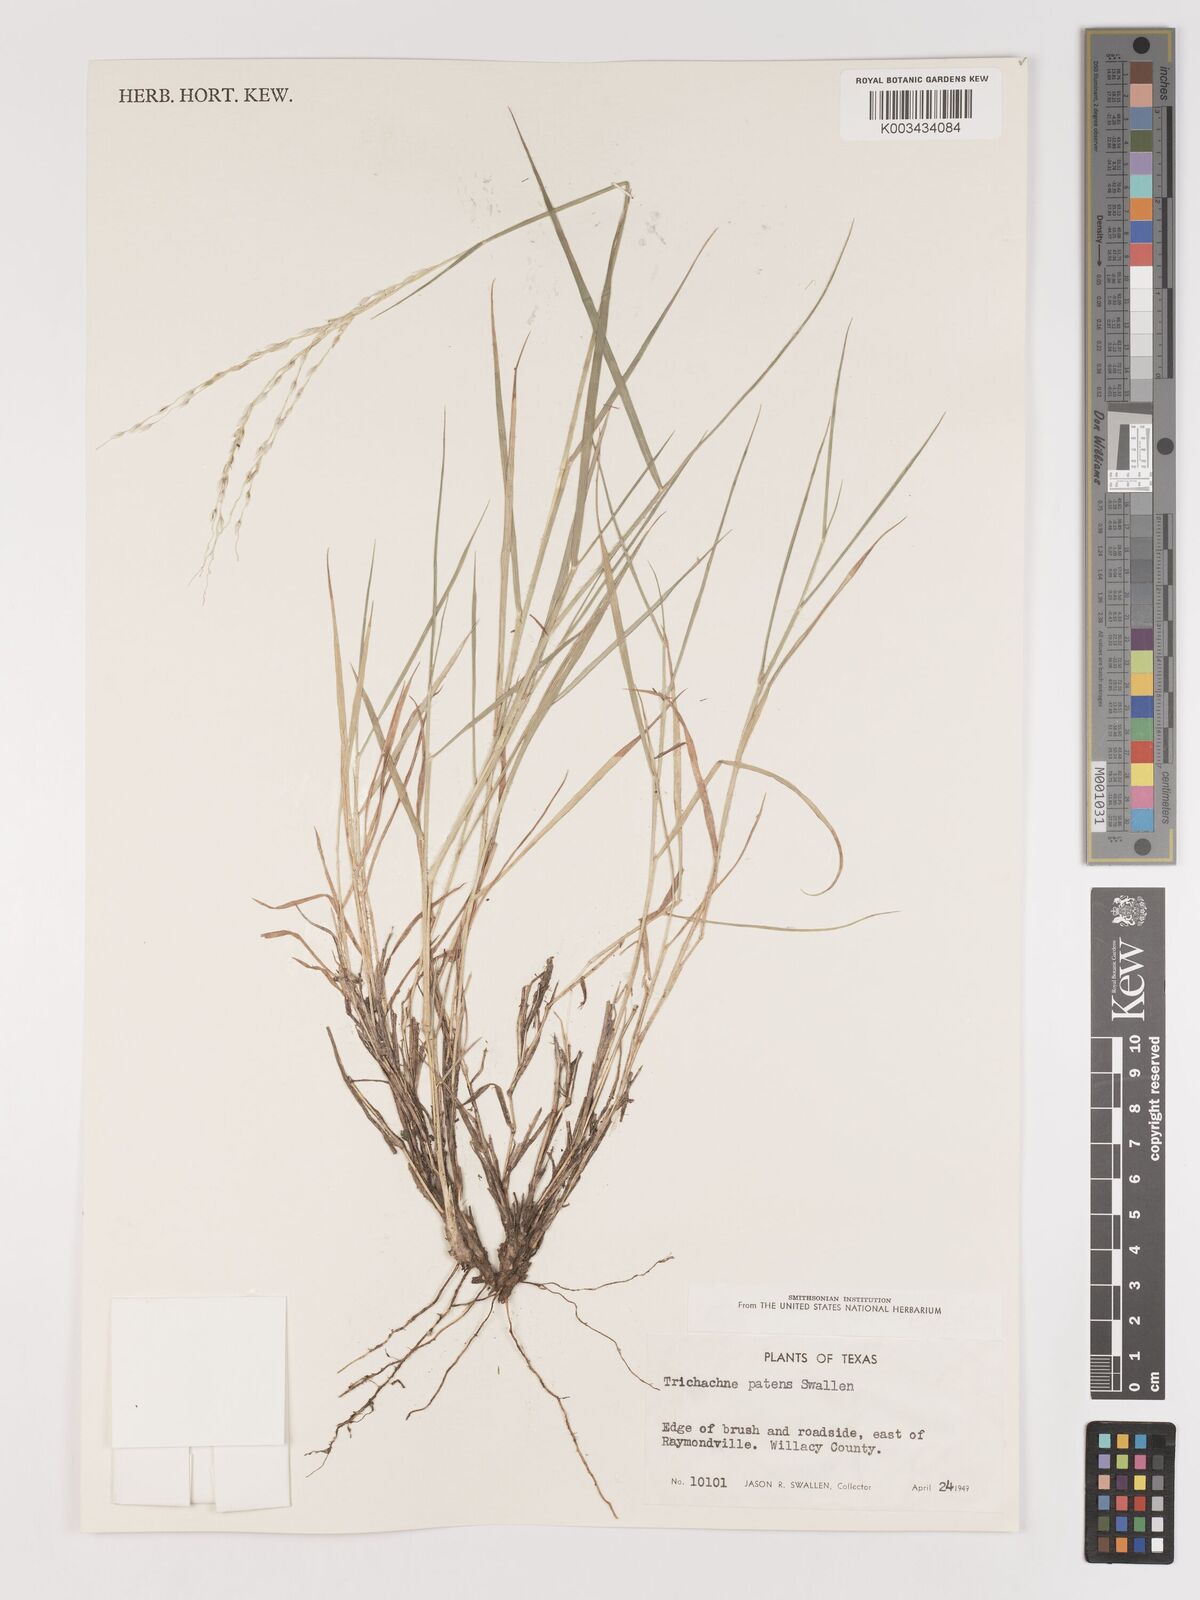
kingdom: Plantae
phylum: Tracheophyta
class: Liliopsida
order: Poales
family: Poaceae
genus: Digitaria
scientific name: Digitaria patens
